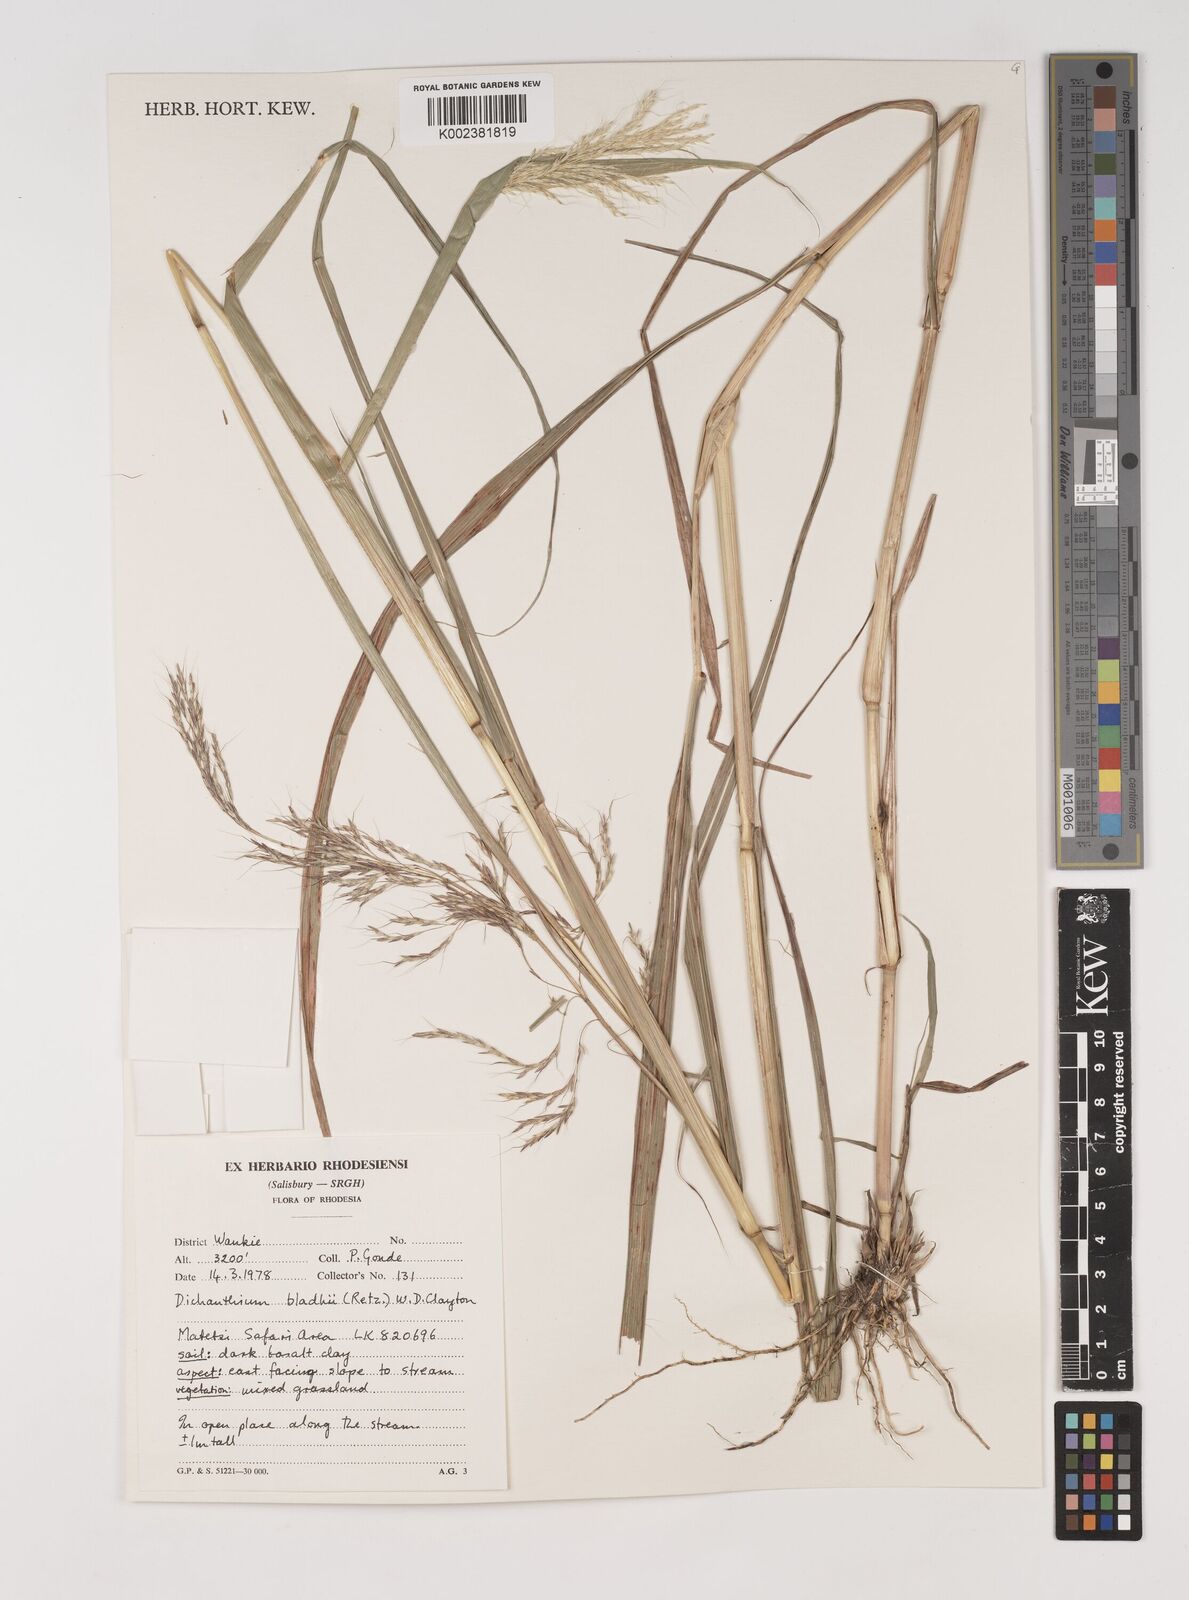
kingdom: Plantae
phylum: Tracheophyta
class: Liliopsida
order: Poales
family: Poaceae
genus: Bothriochloa
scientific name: Bothriochloa bladhii
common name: Caucasian bluestem
